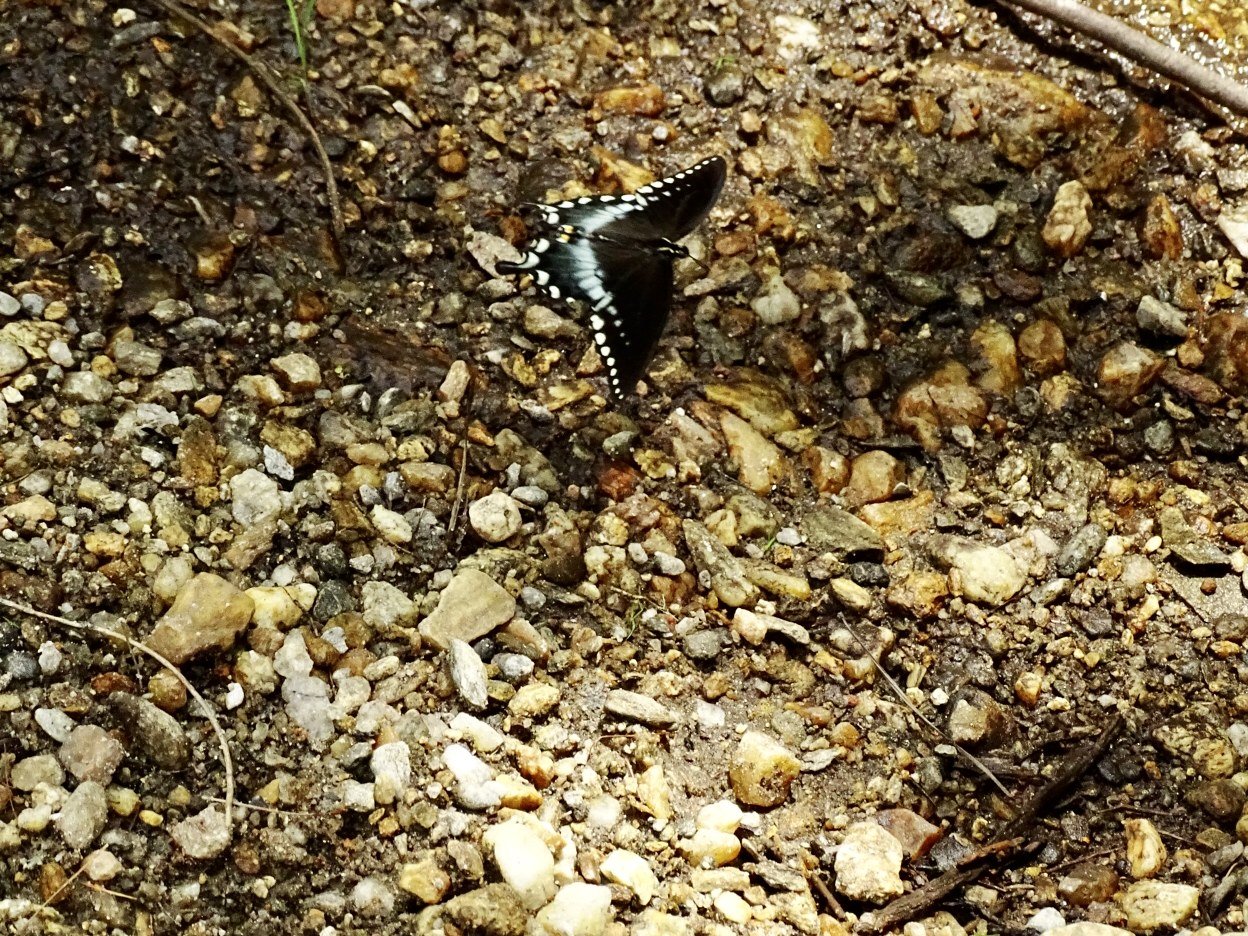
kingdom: Animalia
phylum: Arthropoda
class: Insecta
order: Lepidoptera
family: Papilionidae
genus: Pterourus
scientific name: Pterourus troilus
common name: Spicebush Swallowtail
